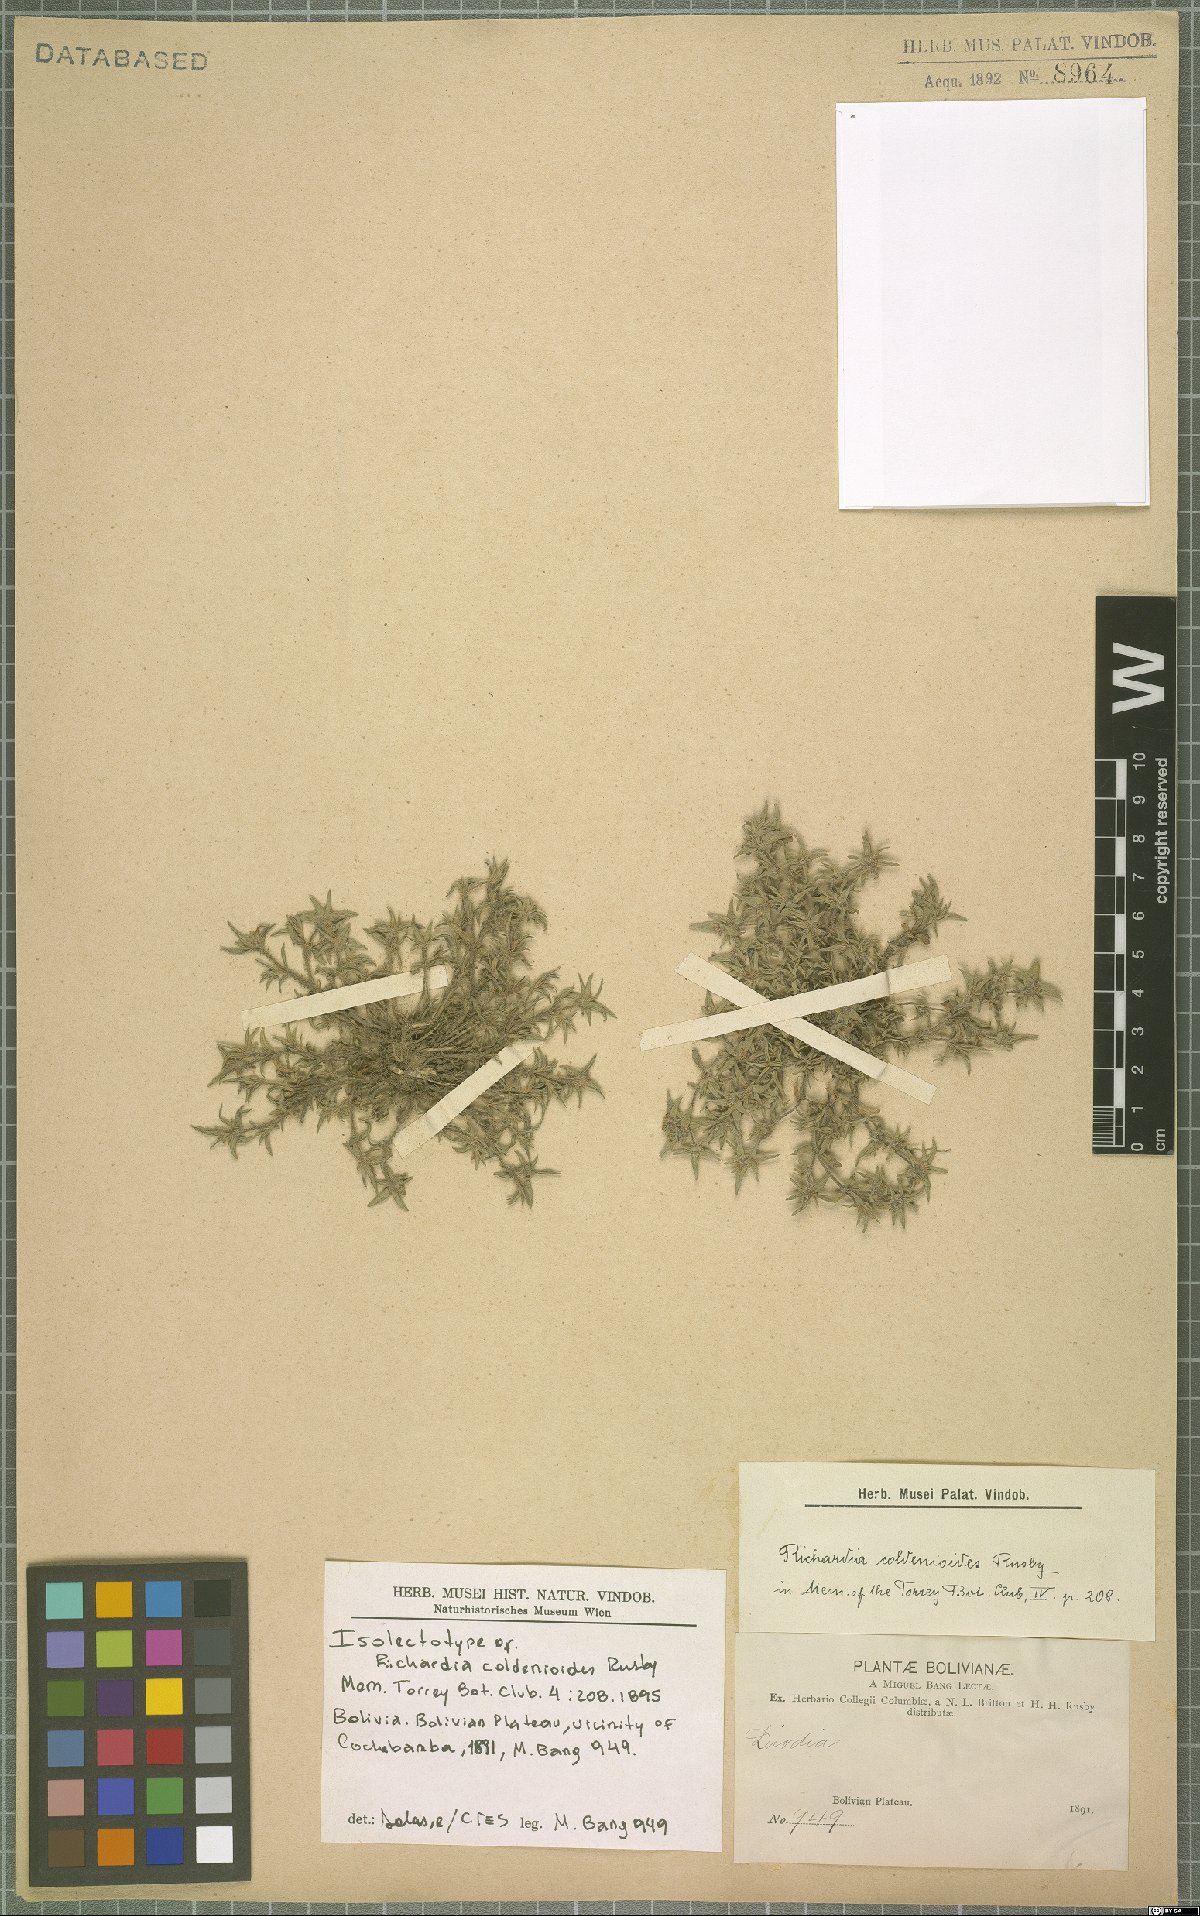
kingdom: Plantae
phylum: Tracheophyta
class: Magnoliopsida
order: Gentianales
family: Rubiaceae
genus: Richardia
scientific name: Richardia coldenioides
